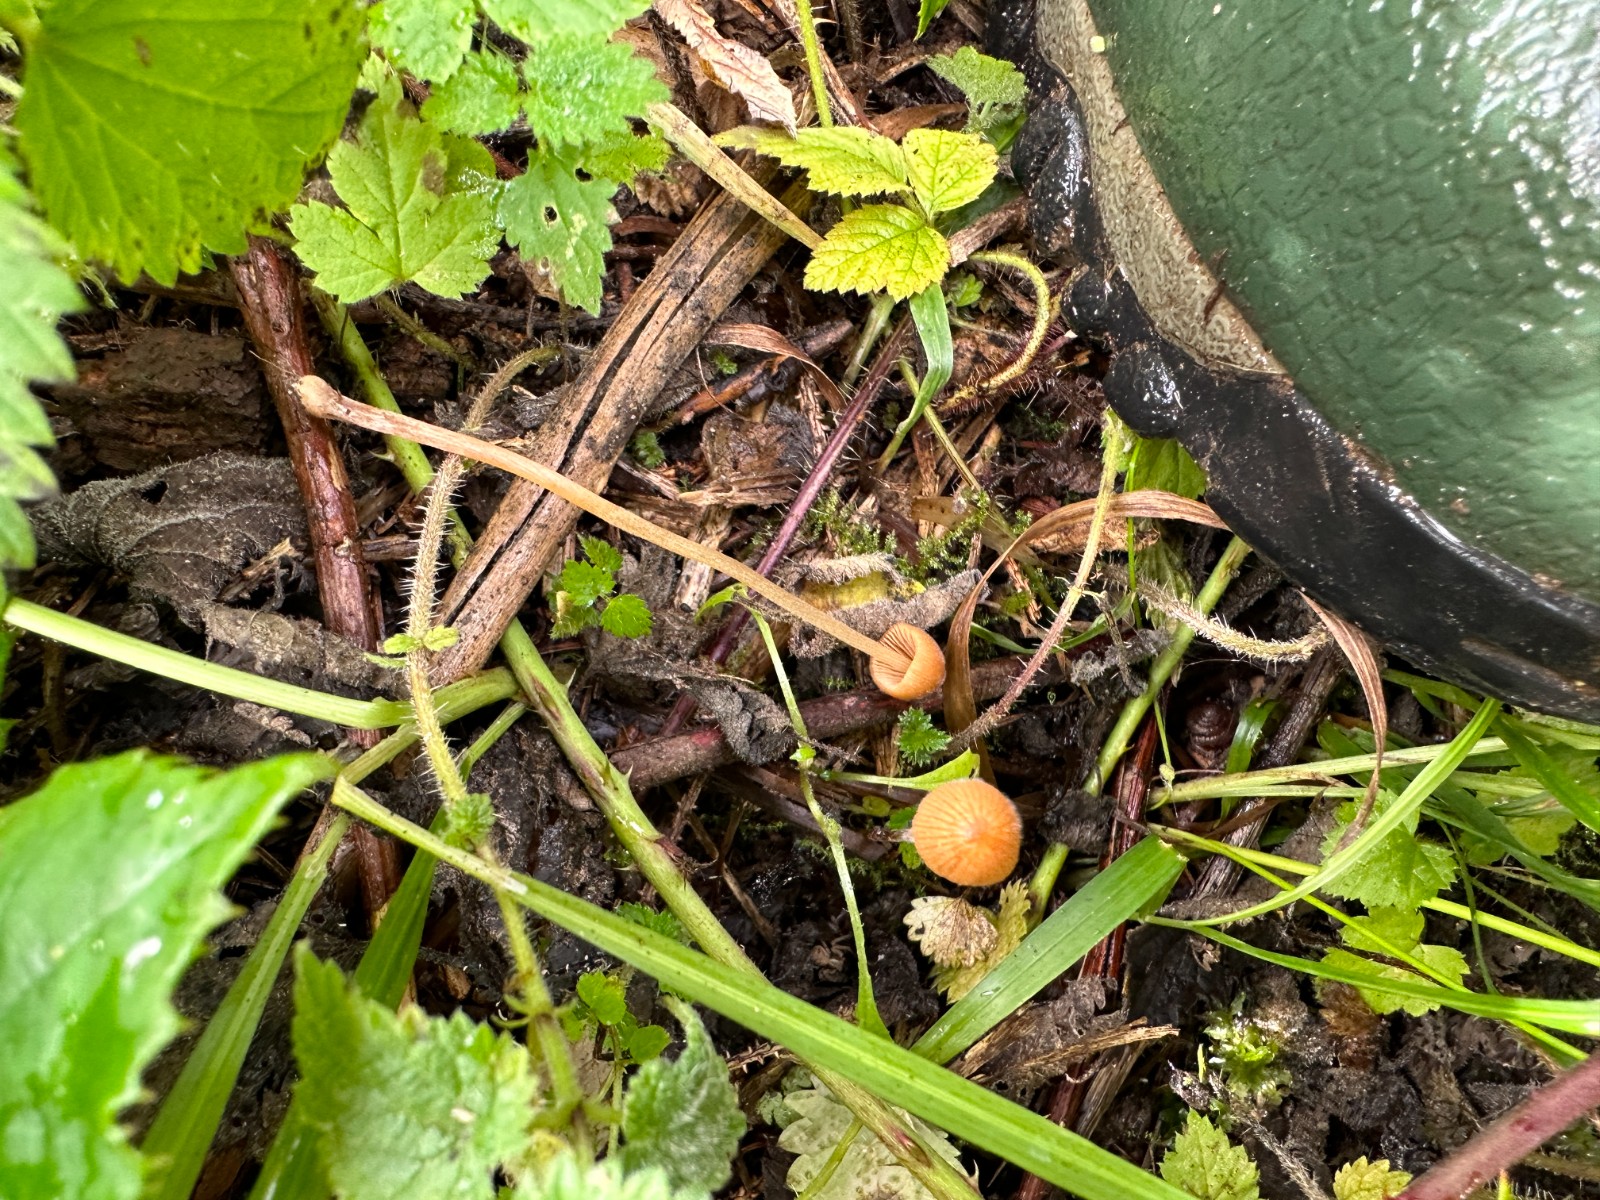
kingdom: Fungi
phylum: Basidiomycota
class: Agaricomycetes
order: Agaricales
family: Bolbitiaceae
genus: Conocybe
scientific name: Conocybe subpubescens
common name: krat-keglehat
